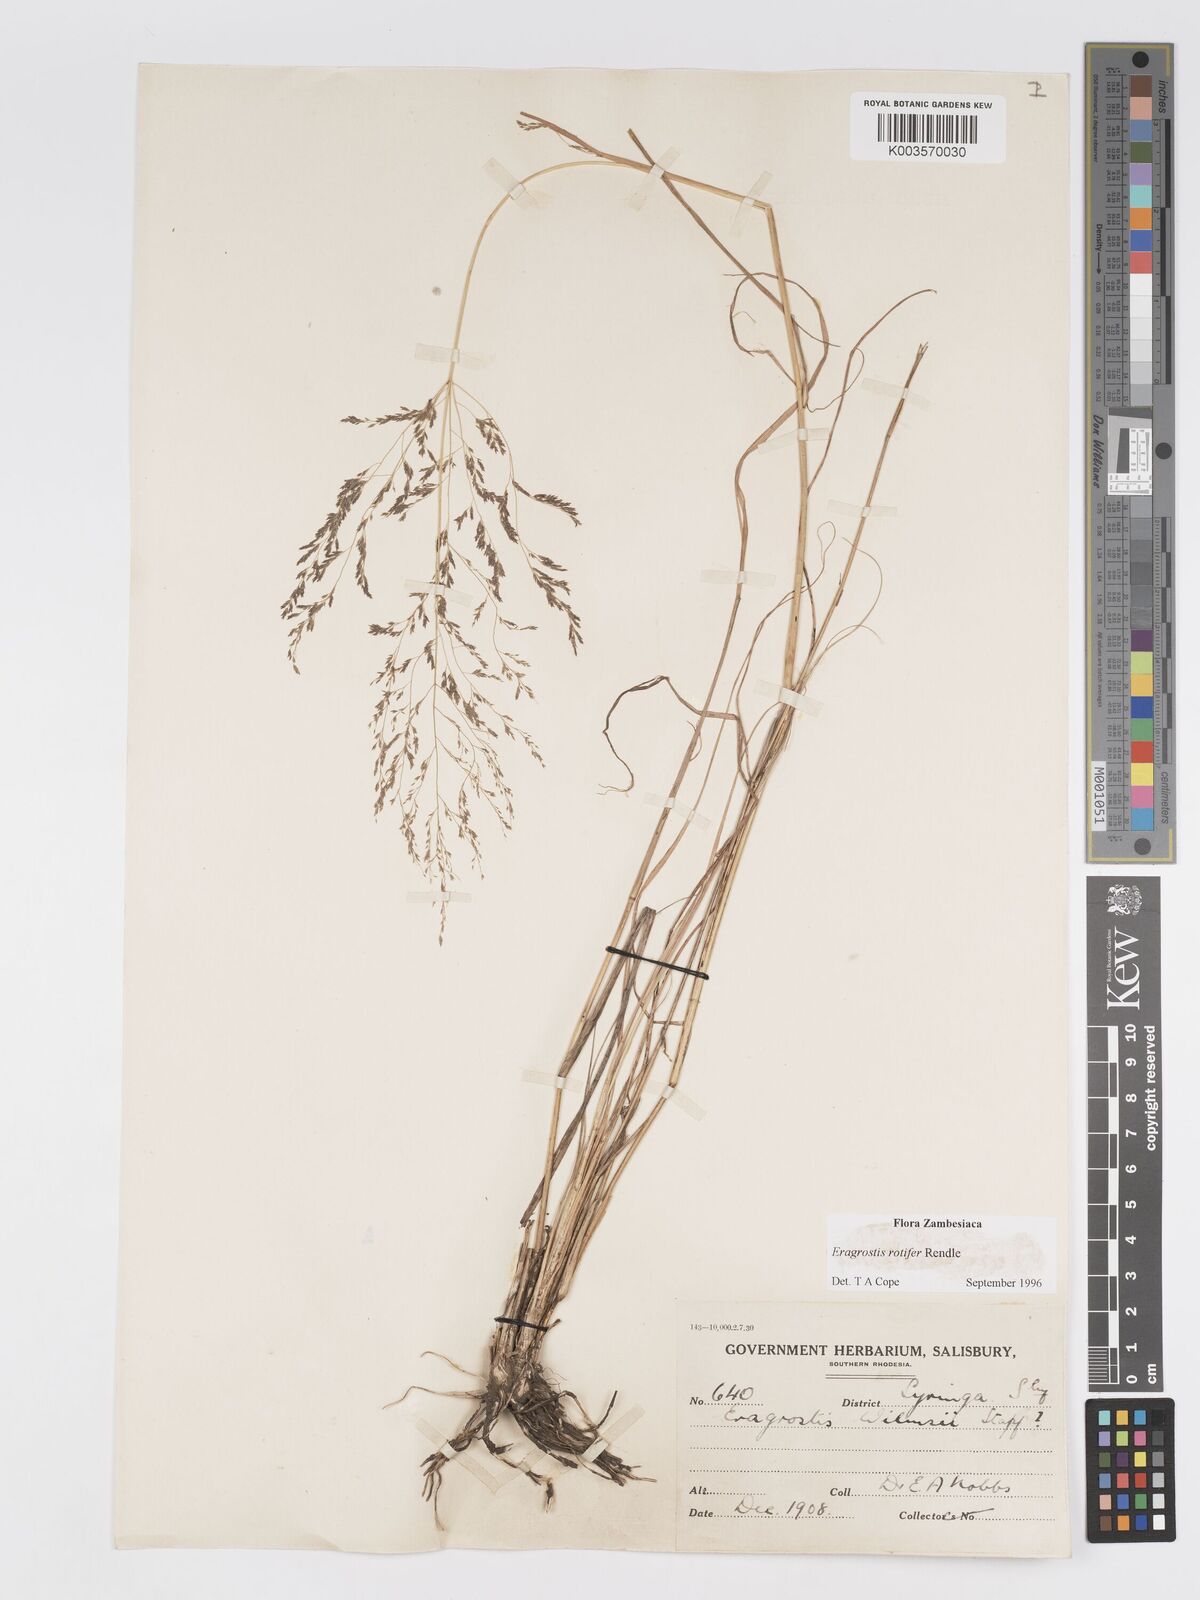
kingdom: Plantae
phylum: Tracheophyta
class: Liliopsida
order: Poales
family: Poaceae
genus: Eragrostis
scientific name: Eragrostis rotifer
